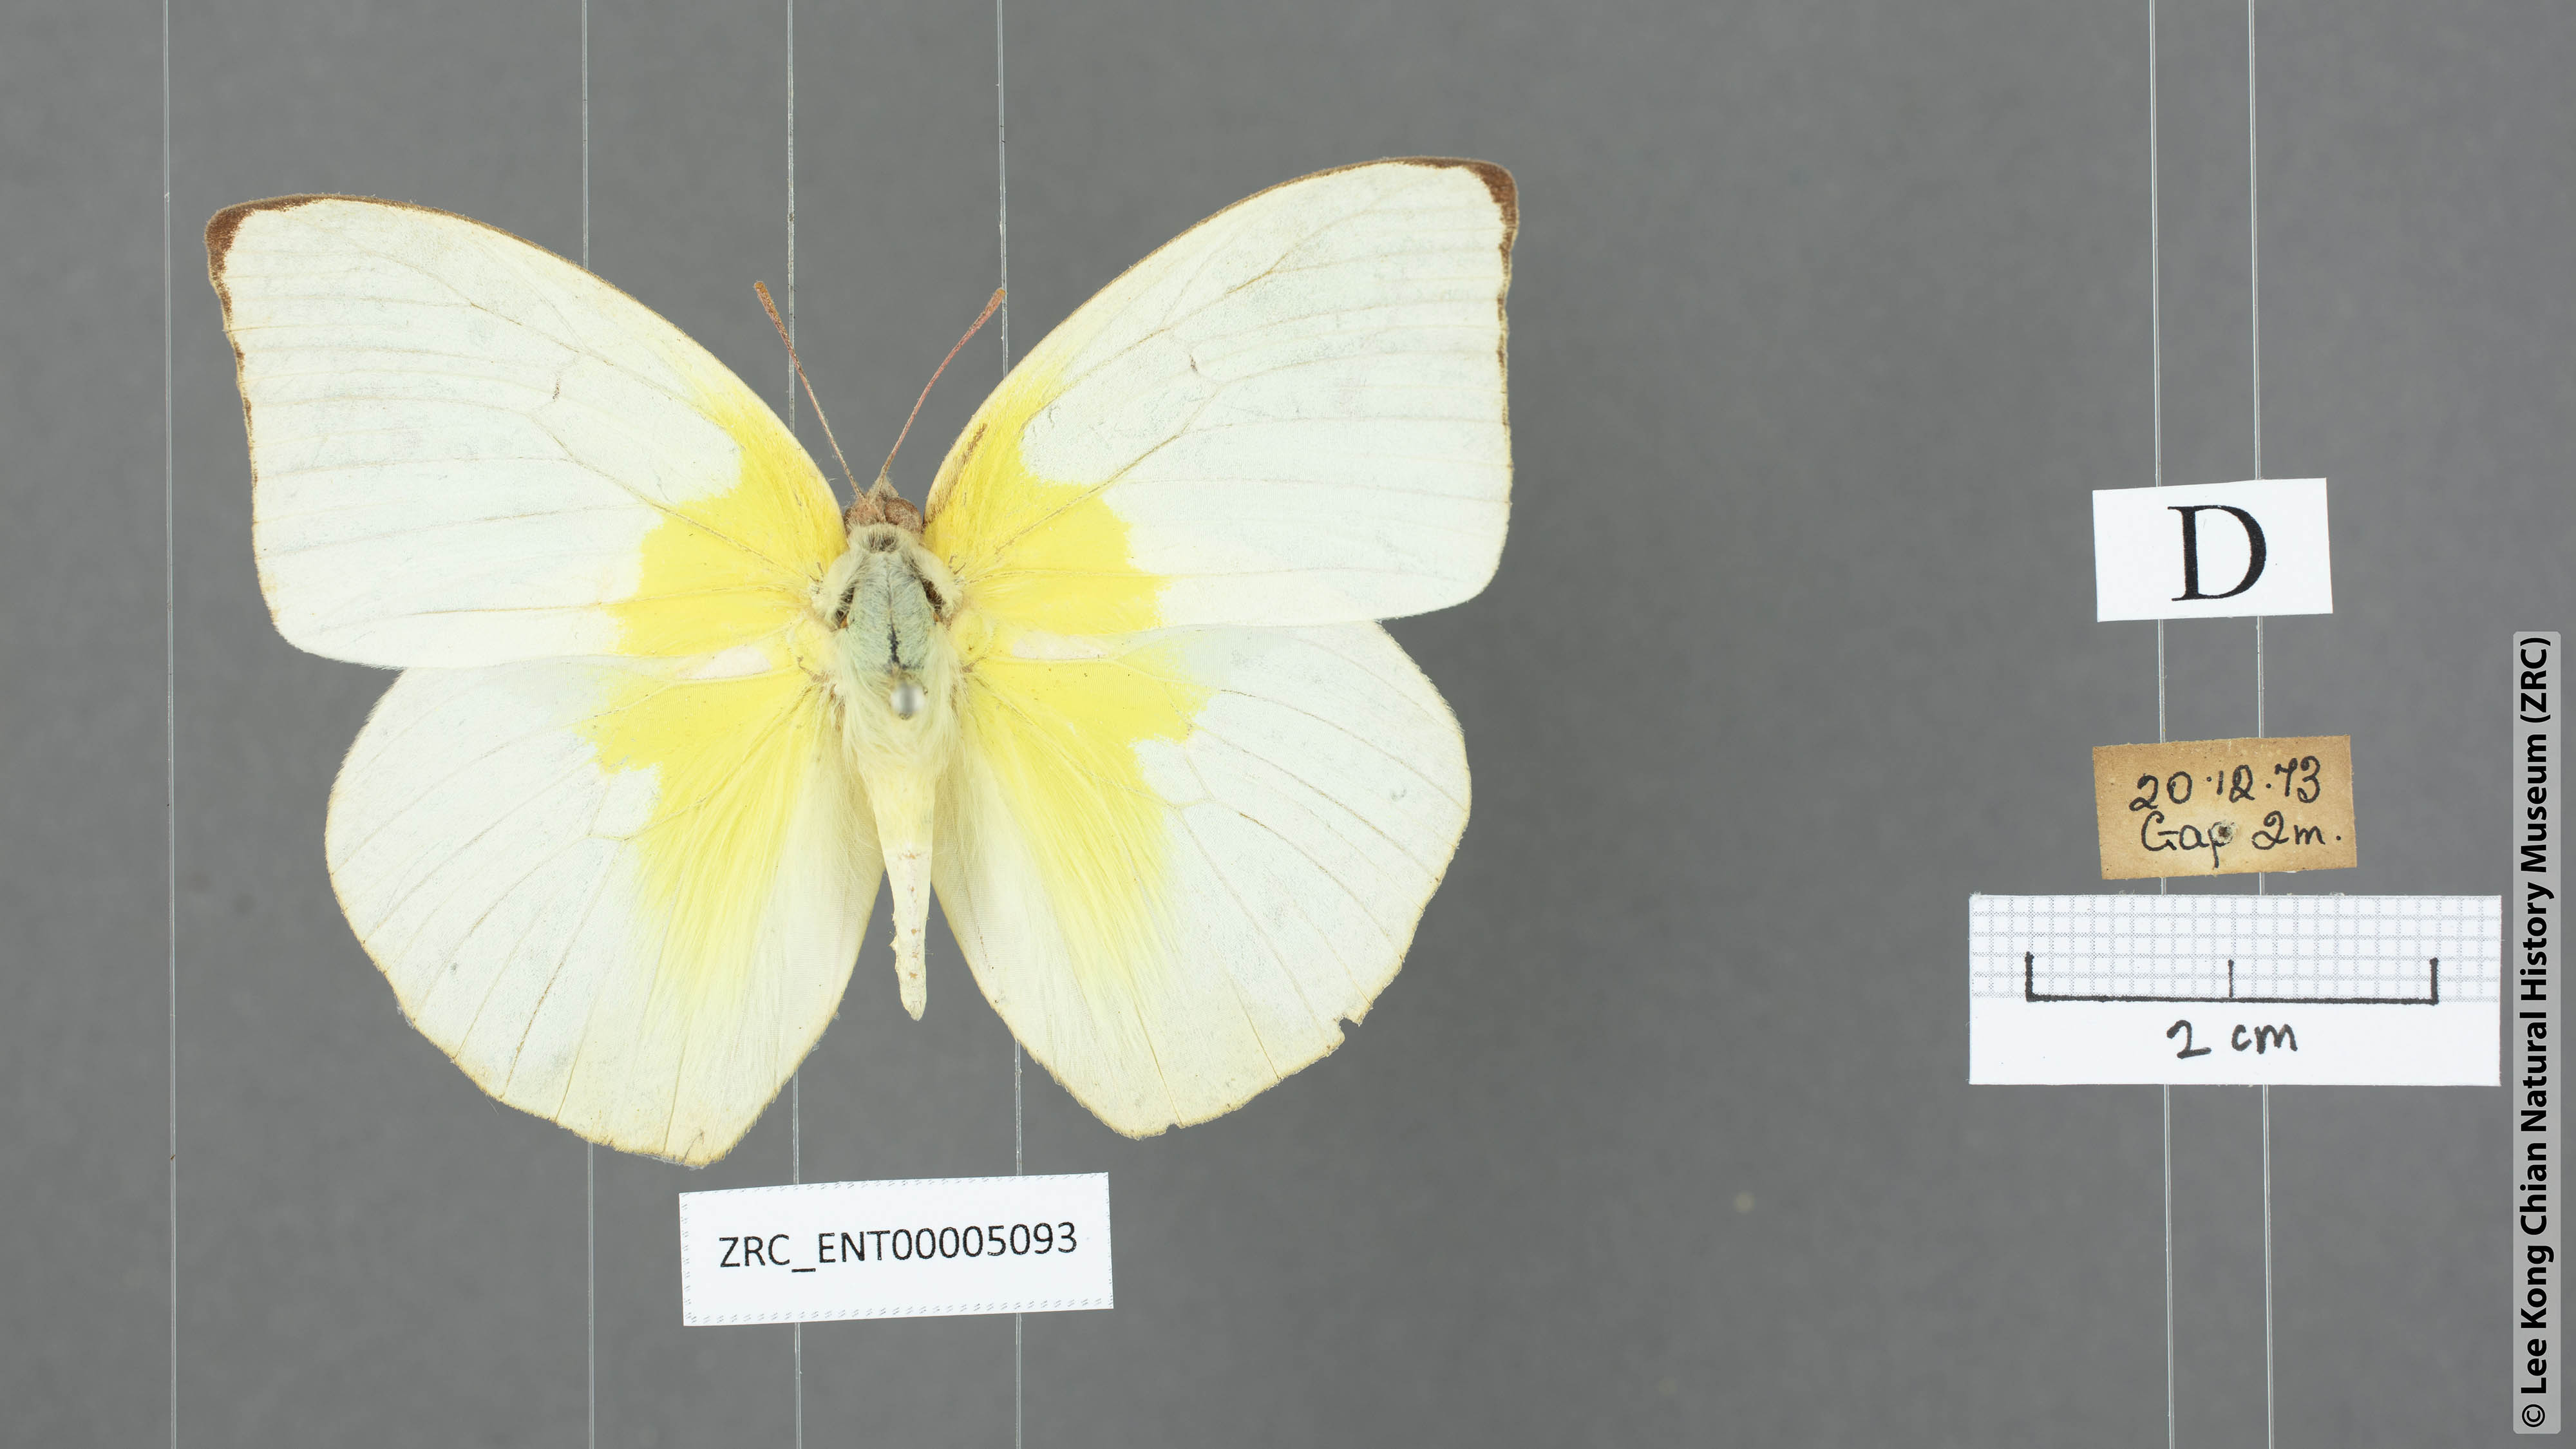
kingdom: Animalia
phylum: Arthropoda
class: Insecta
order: Lepidoptera
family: Pieridae
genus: Catopsilia
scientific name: Catopsilia pomona
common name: Common emigrant
